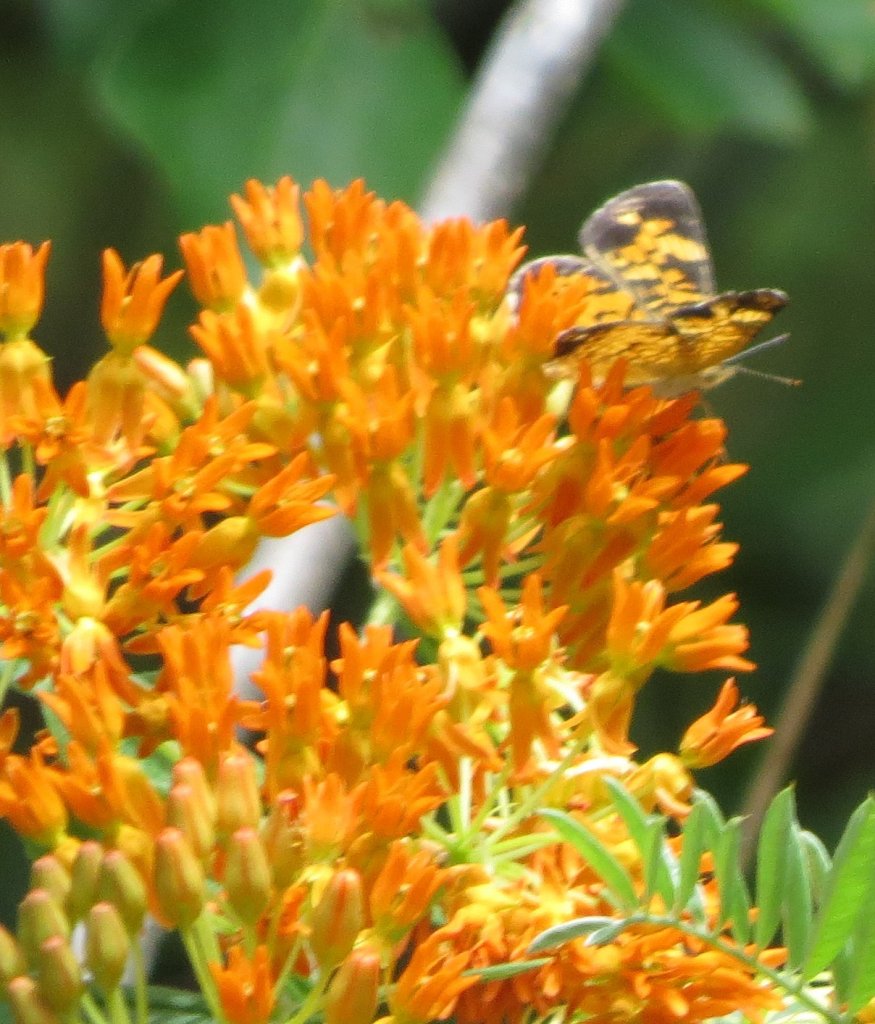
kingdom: Animalia
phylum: Arthropoda
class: Insecta
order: Lepidoptera
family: Nymphalidae
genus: Phyciodes
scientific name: Phyciodes tharos
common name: Pearl Crescent
